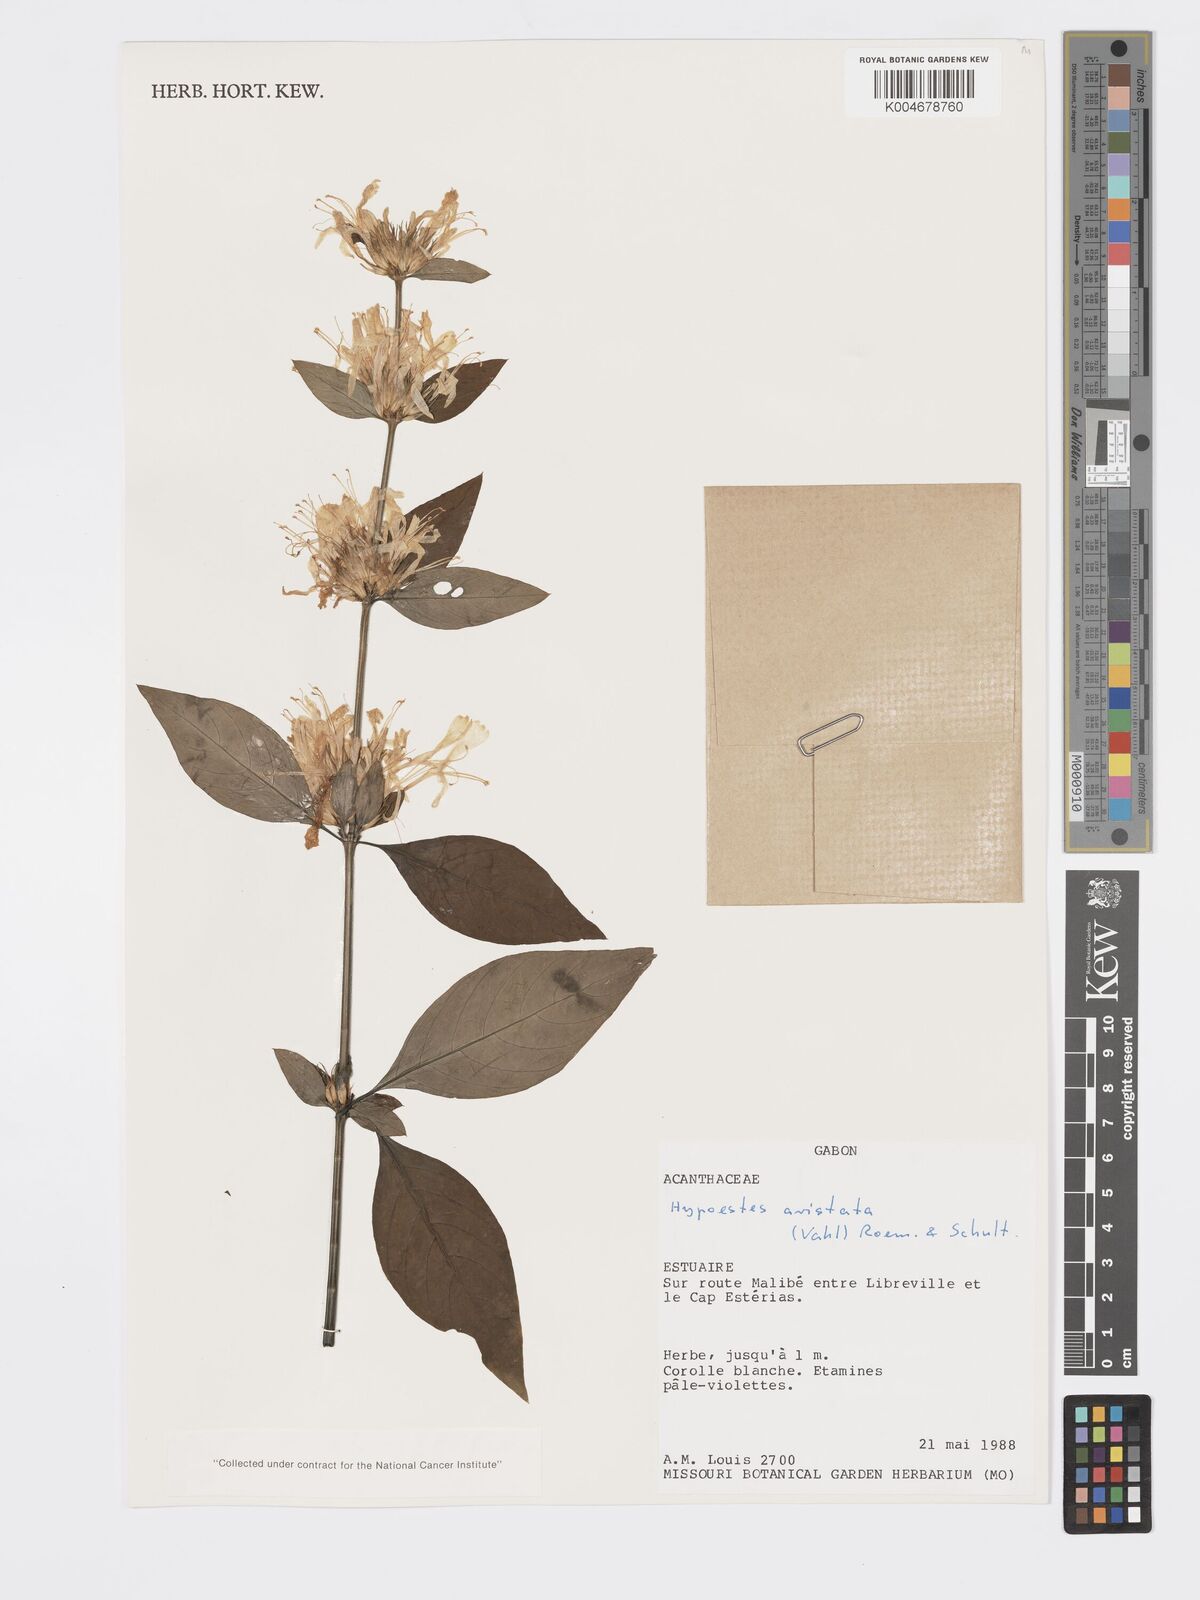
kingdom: Plantae
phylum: Tracheophyta
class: Magnoliopsida
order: Lamiales
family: Acanthaceae
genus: Hypoestes
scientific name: Hypoestes aristata
